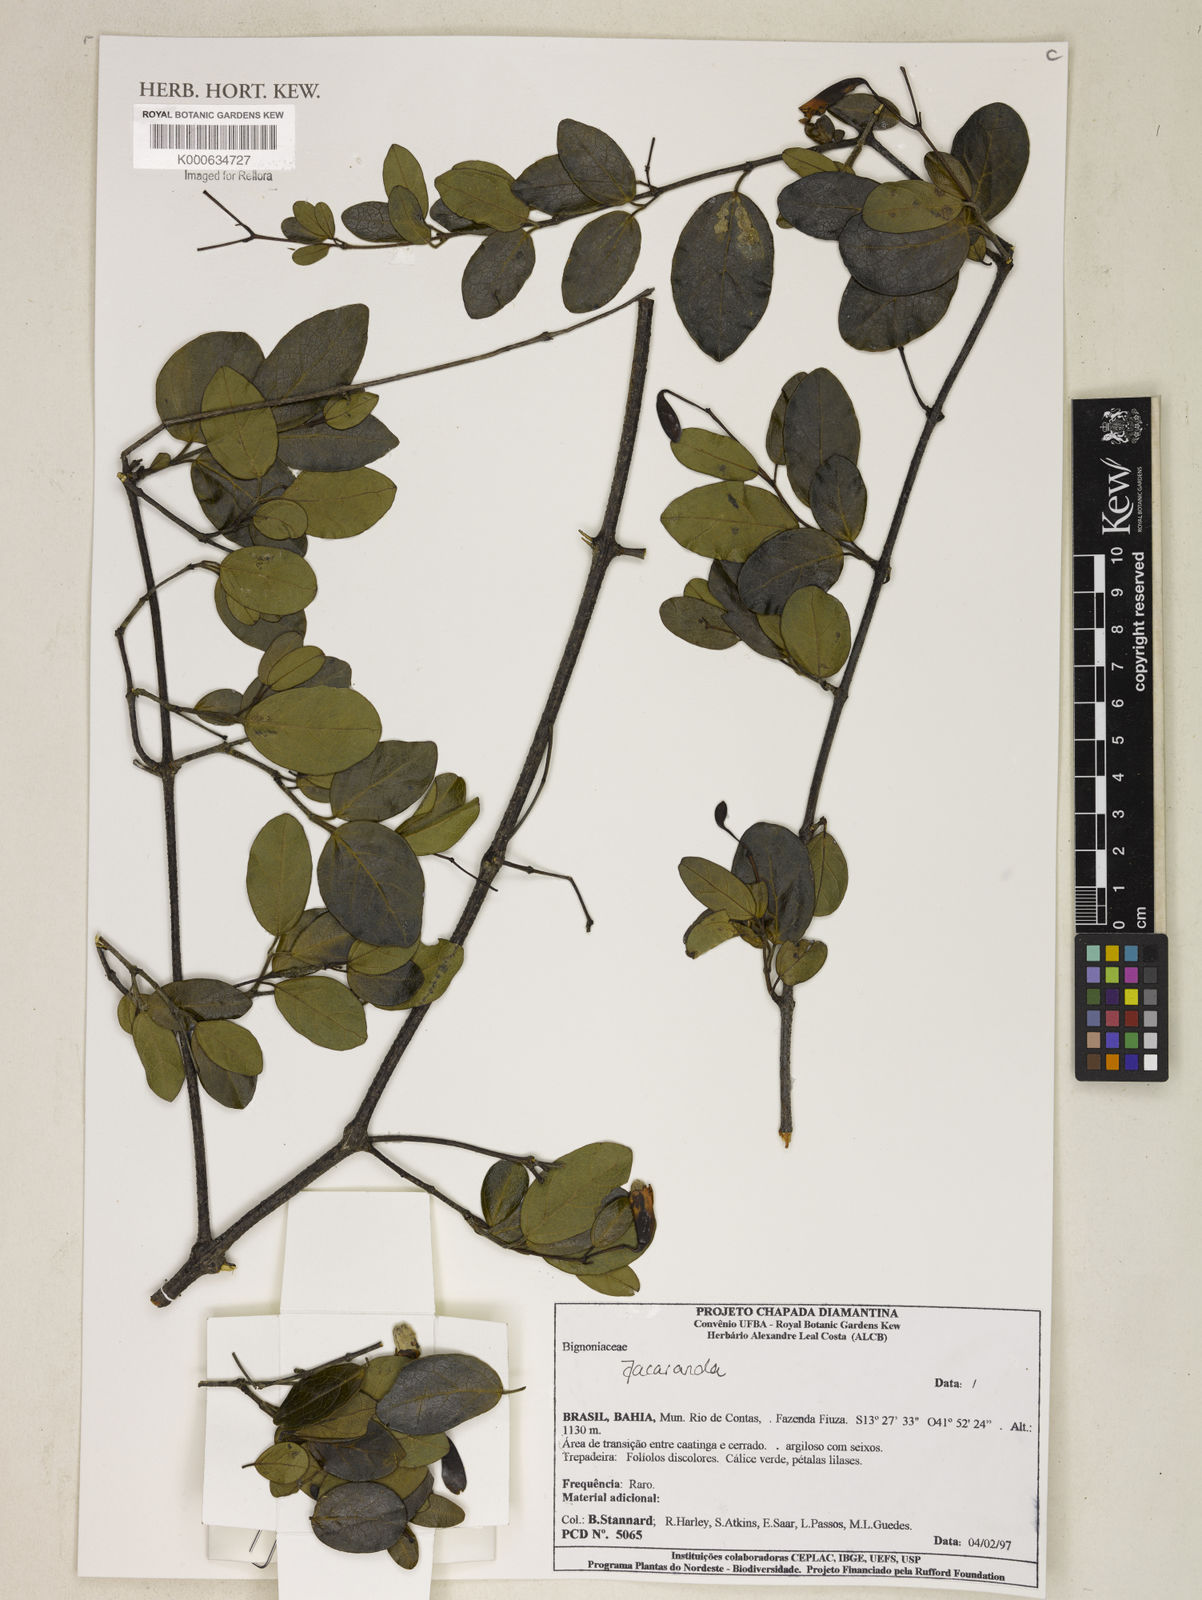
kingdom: Plantae
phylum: Tracheophyta
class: Magnoliopsida
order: Lamiales
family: Bignoniaceae
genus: Jacaranda
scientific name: Jacaranda
